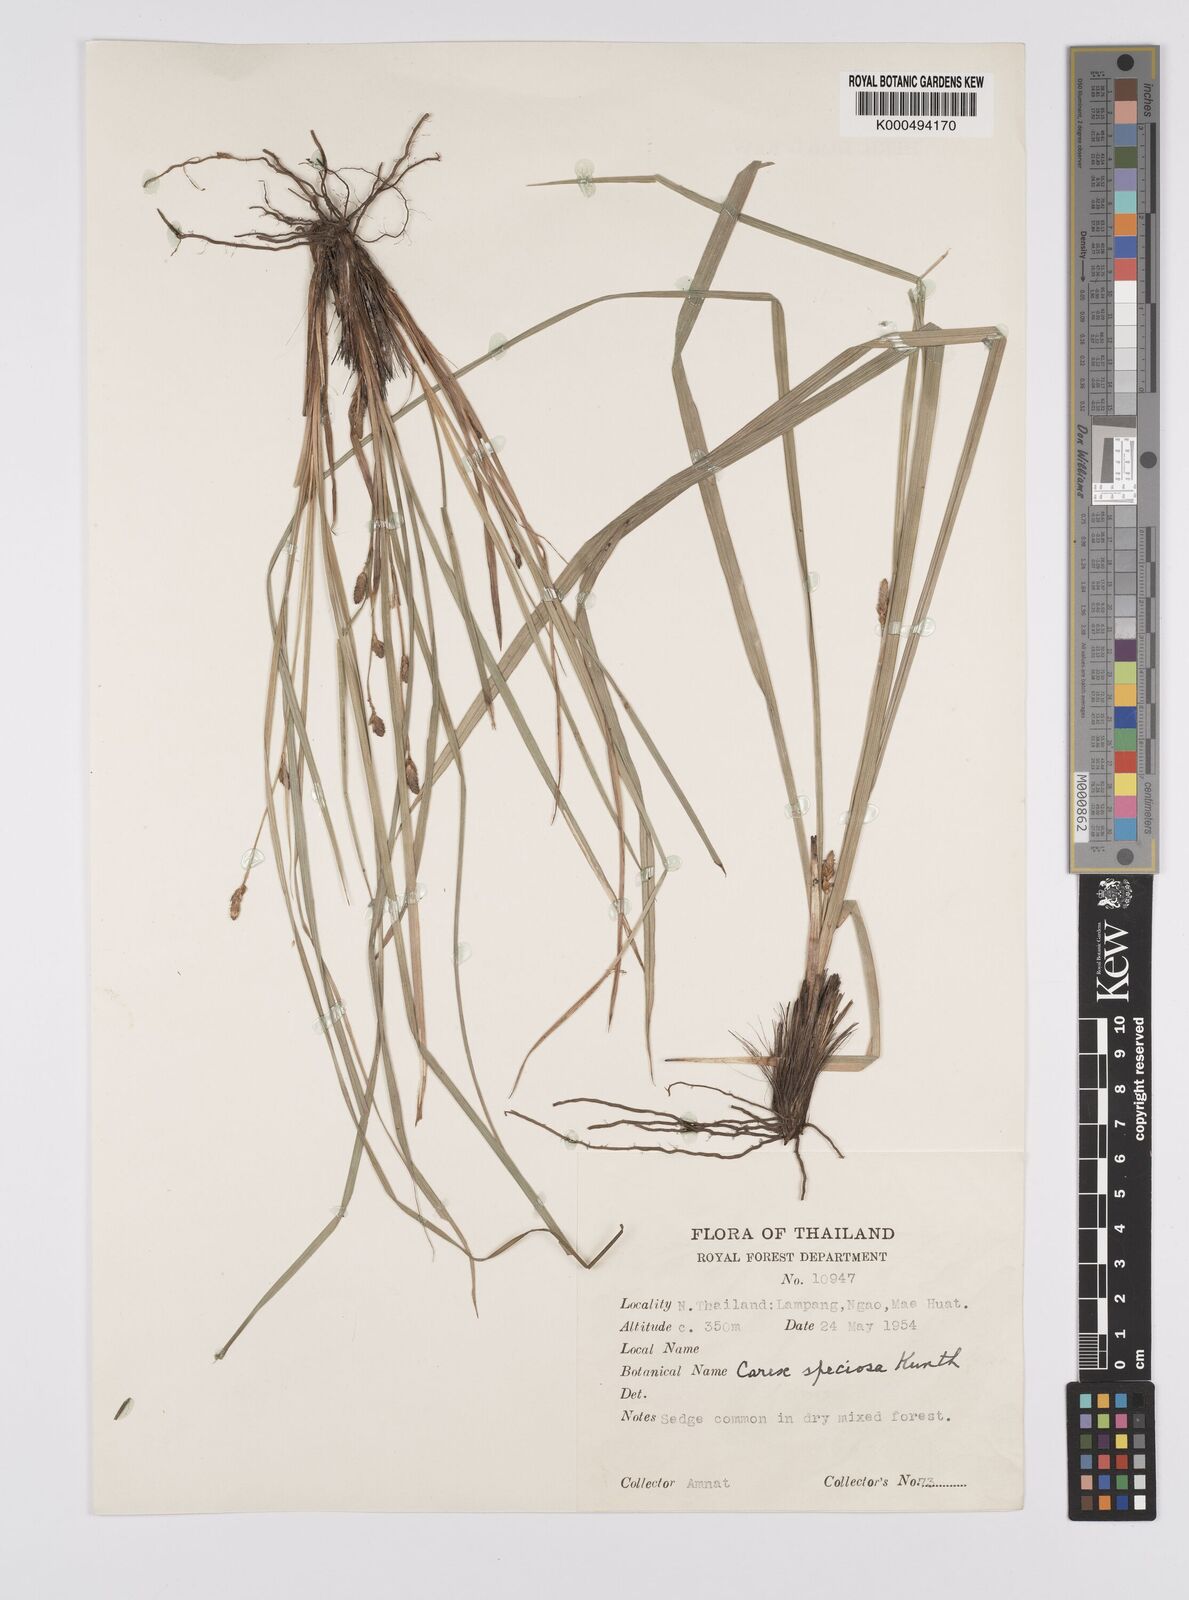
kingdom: Plantae
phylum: Tracheophyta
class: Liliopsida
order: Poales
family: Cyperaceae
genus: Carex
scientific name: Carex speciosa
